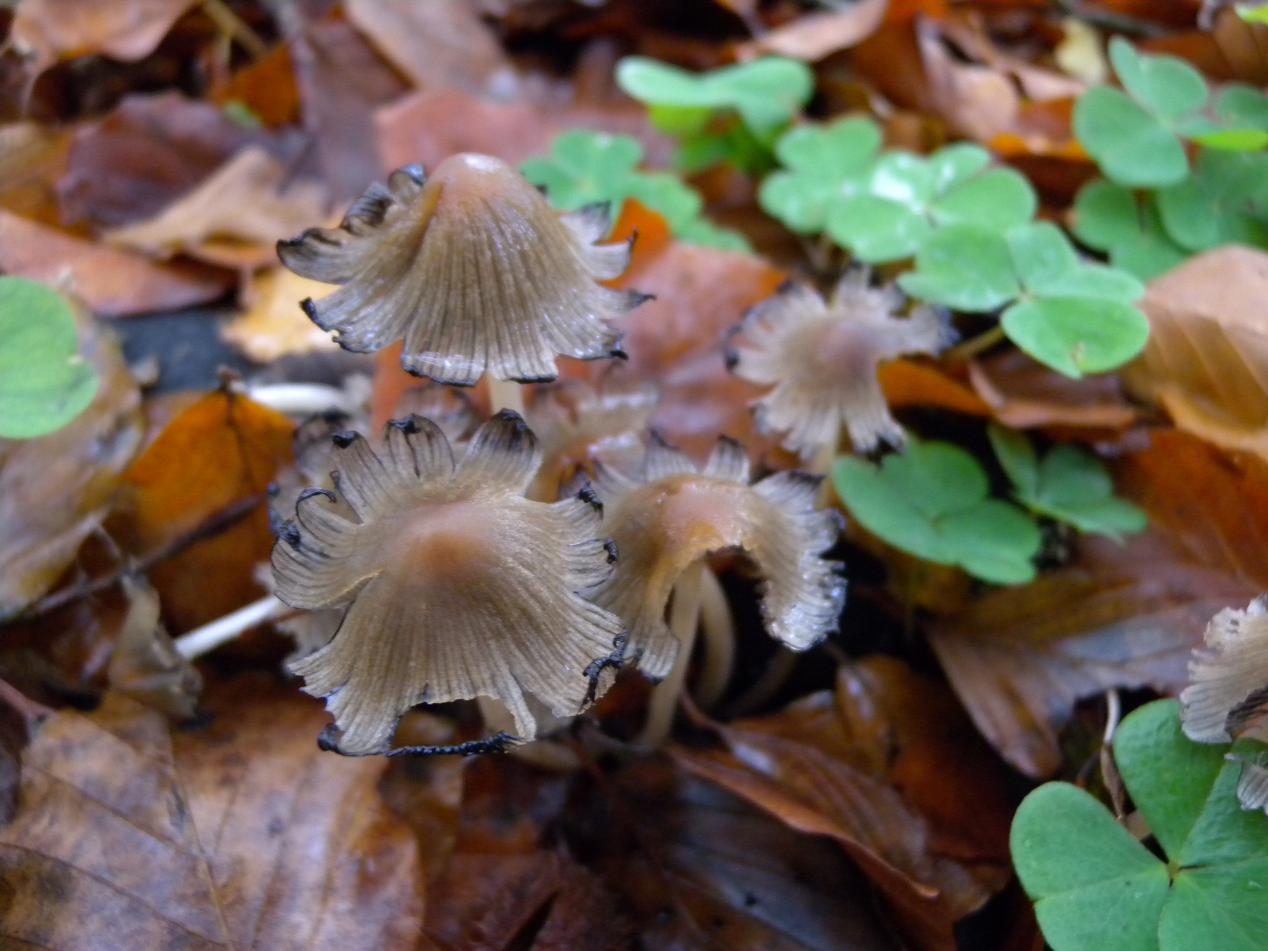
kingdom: Fungi
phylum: Basidiomycota
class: Agaricomycetes
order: Agaricales
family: Psathyrellaceae
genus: Coprinellus
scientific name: Coprinellus micaceus
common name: glimmer-blækhat
